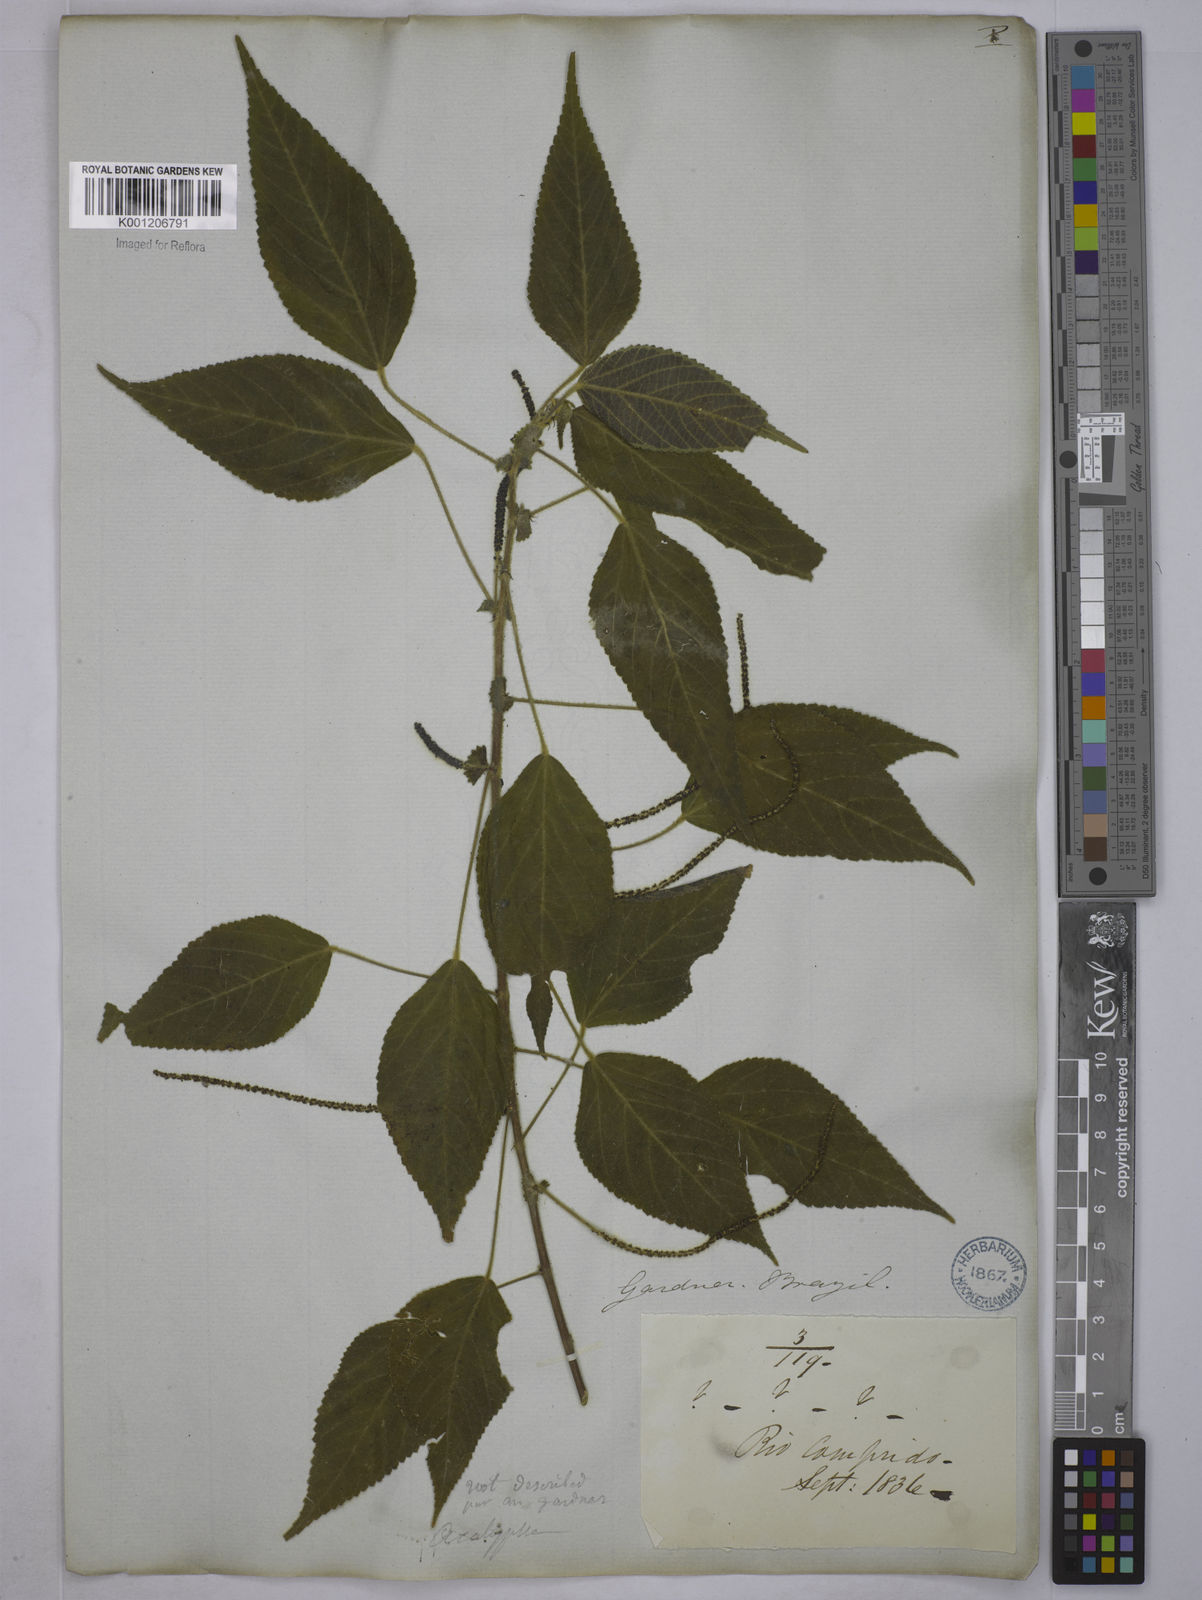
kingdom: Plantae
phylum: Tracheophyta
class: Magnoliopsida
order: Malpighiales
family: Euphorbiaceae
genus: Acalypha
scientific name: Acalypha
